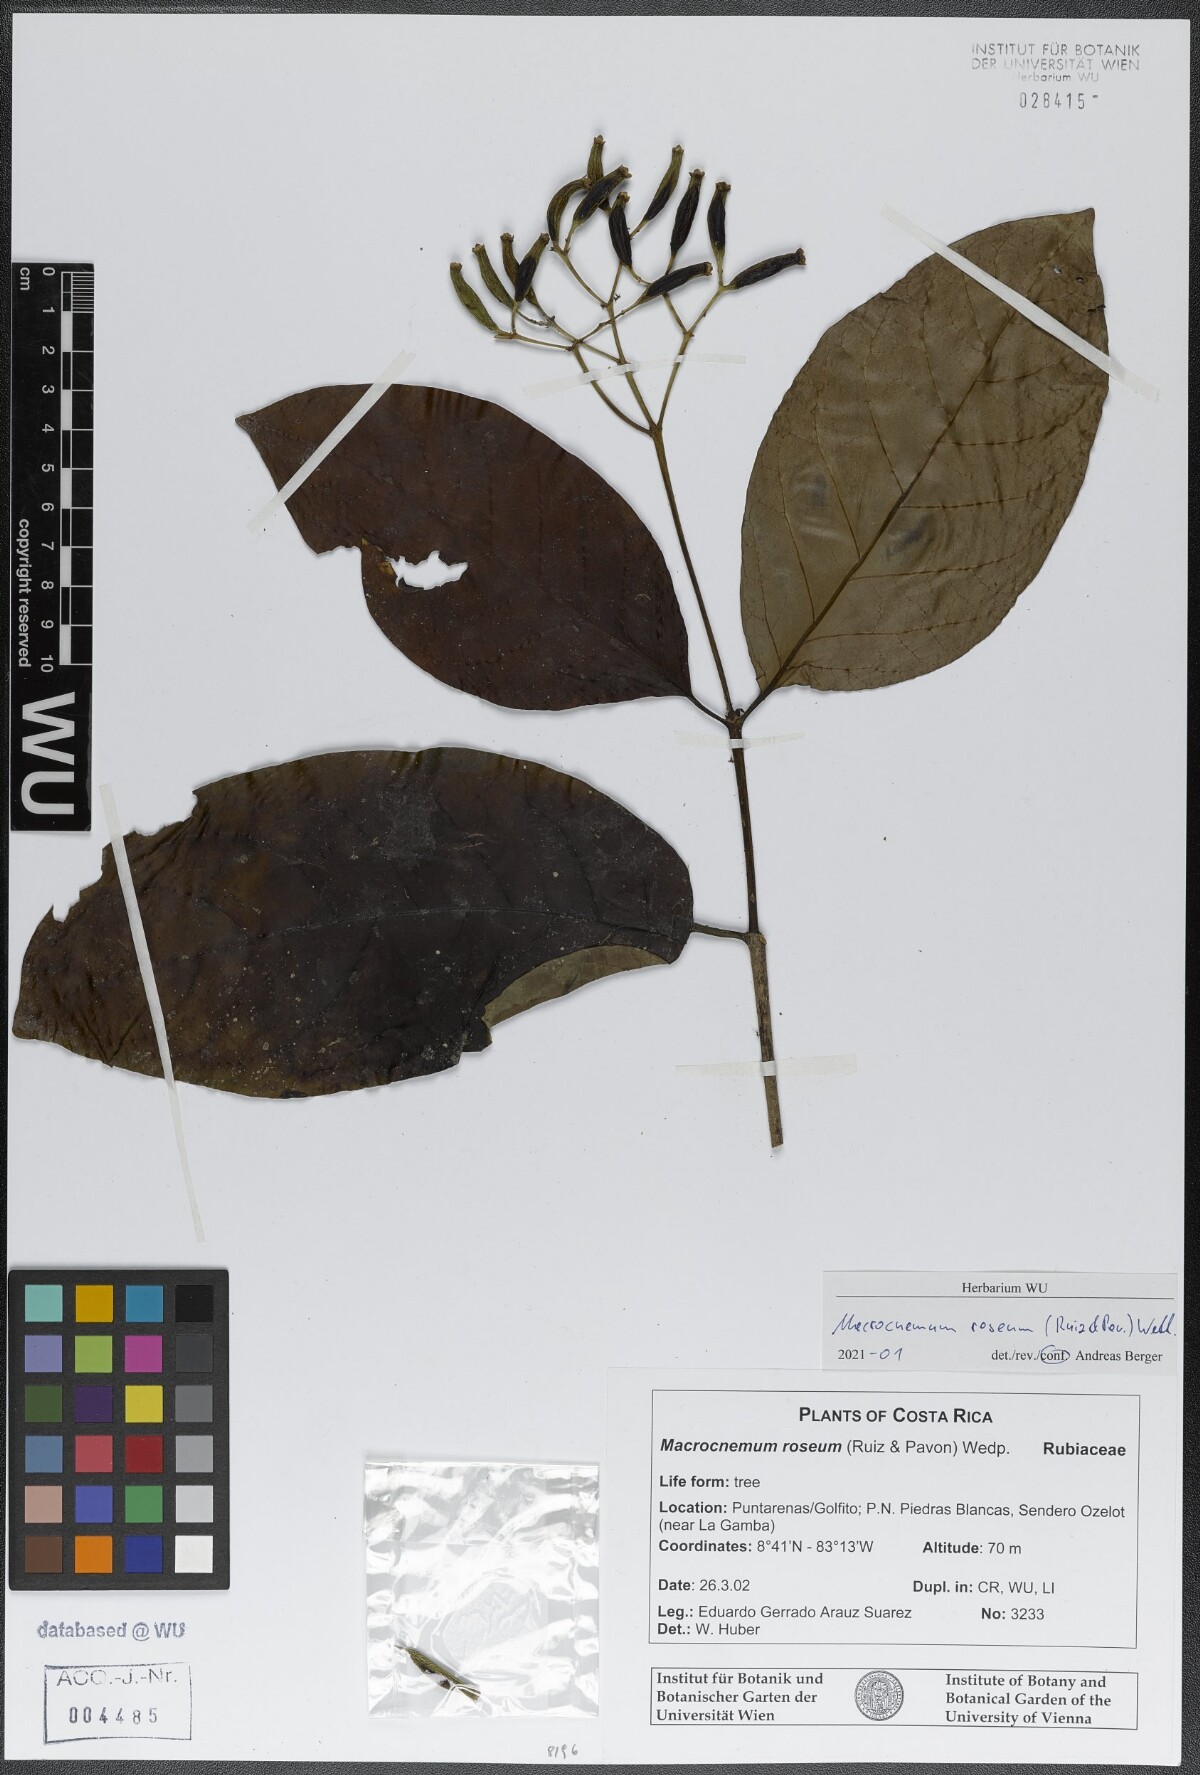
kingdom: Plantae
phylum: Tracheophyta
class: Magnoliopsida
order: Gentianales
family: Rubiaceae
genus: Macrocnemum
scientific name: Macrocnemum roseum
